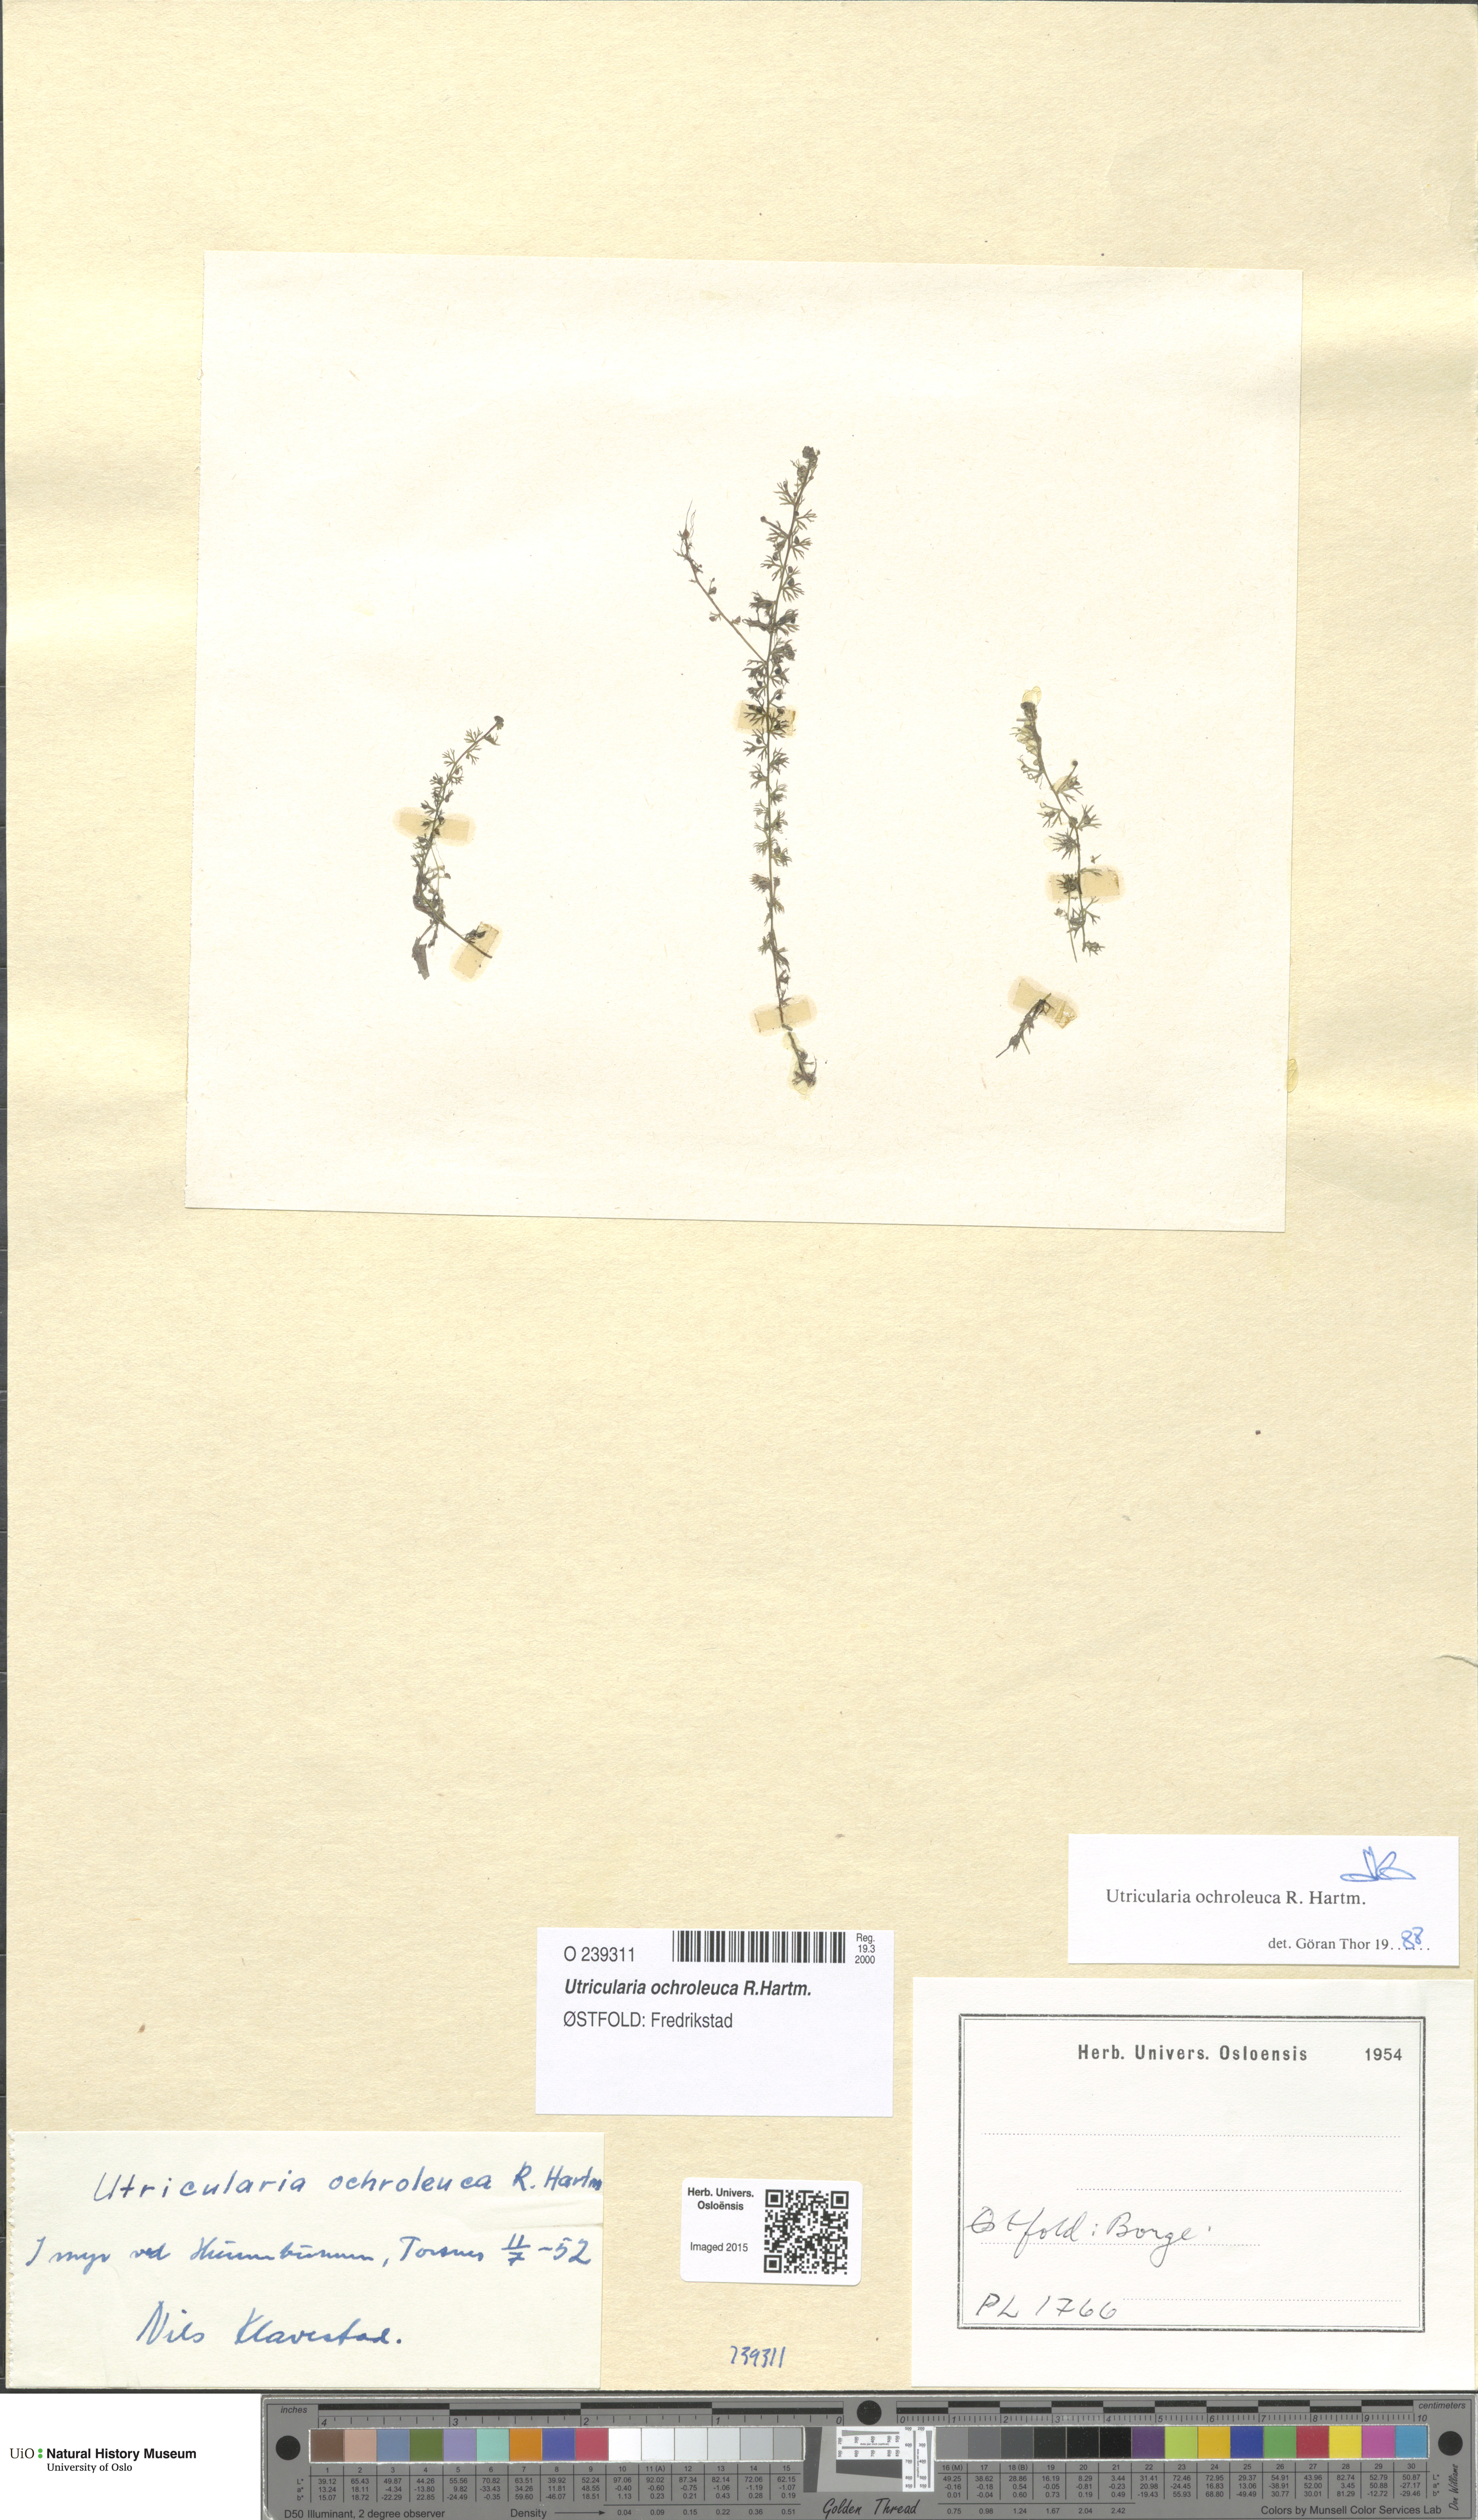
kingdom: Plantae
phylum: Tracheophyta
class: Magnoliopsida
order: Lamiales
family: Lentibulariaceae
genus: Utricularia
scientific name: Utricularia ochroleuca
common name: Pale bladderwort
